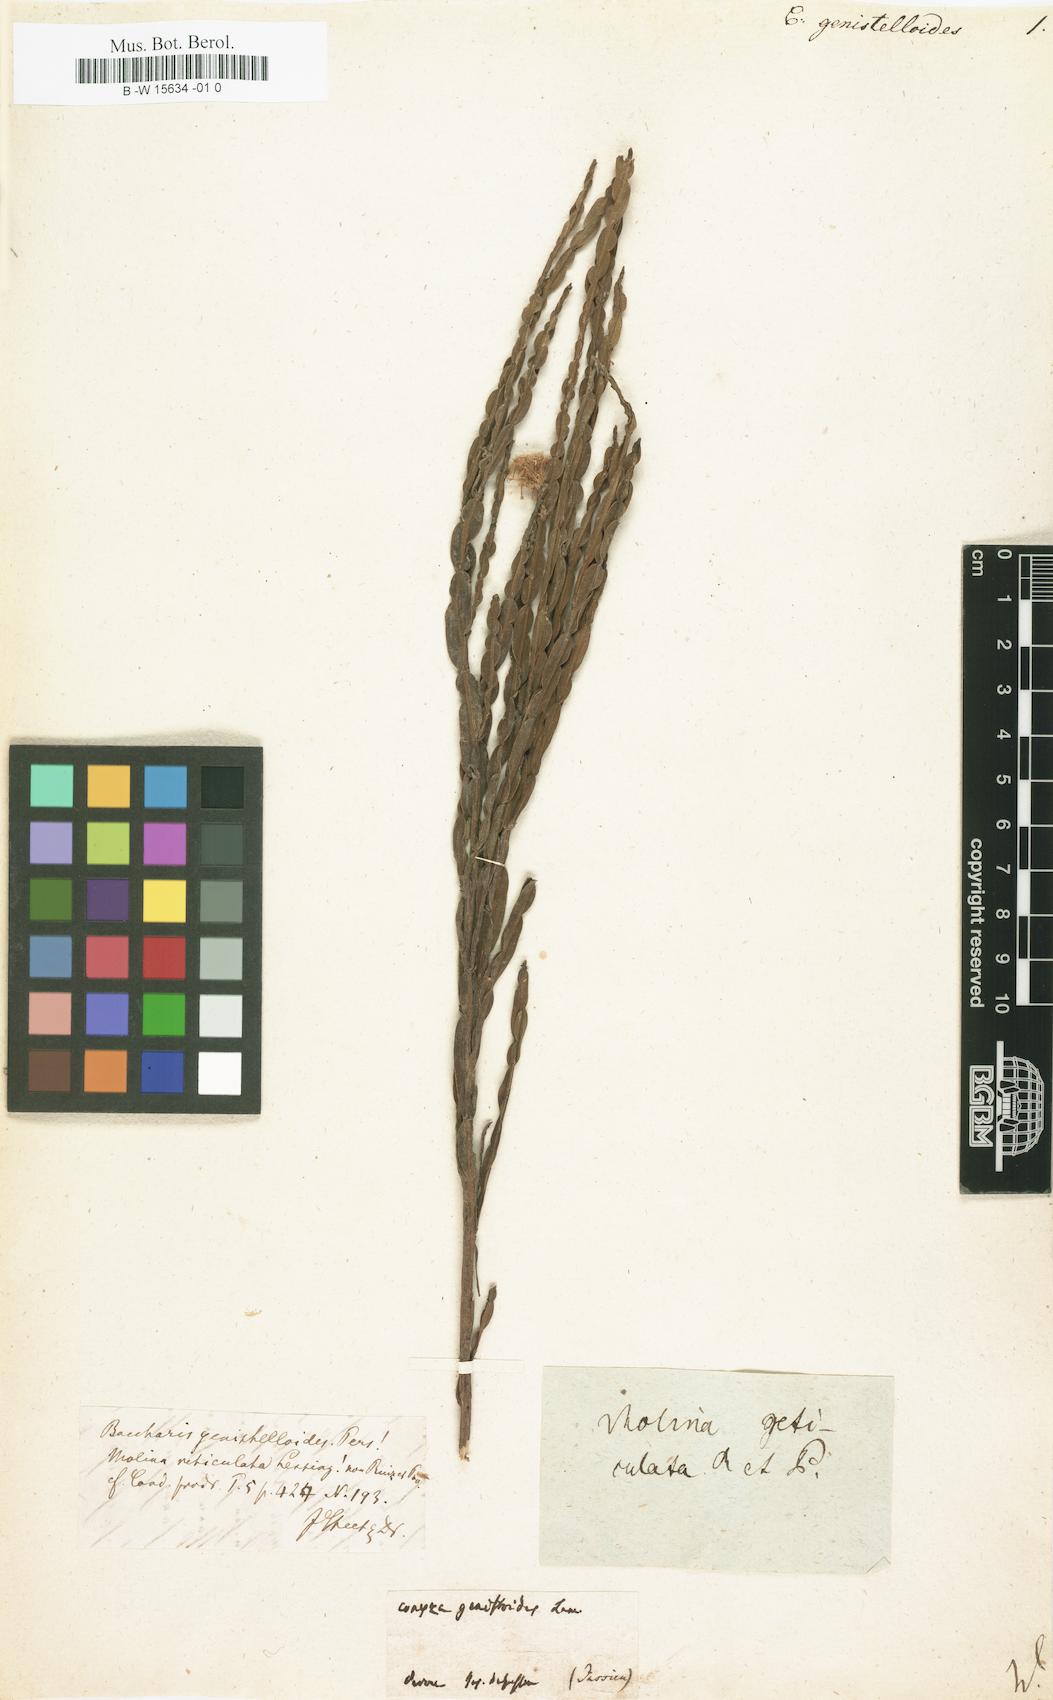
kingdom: Plantae
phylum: Tracheophyta
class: Magnoliopsida
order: Asterales
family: Asteraceae
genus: Baccharis
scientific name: Baccharis genistelloides
